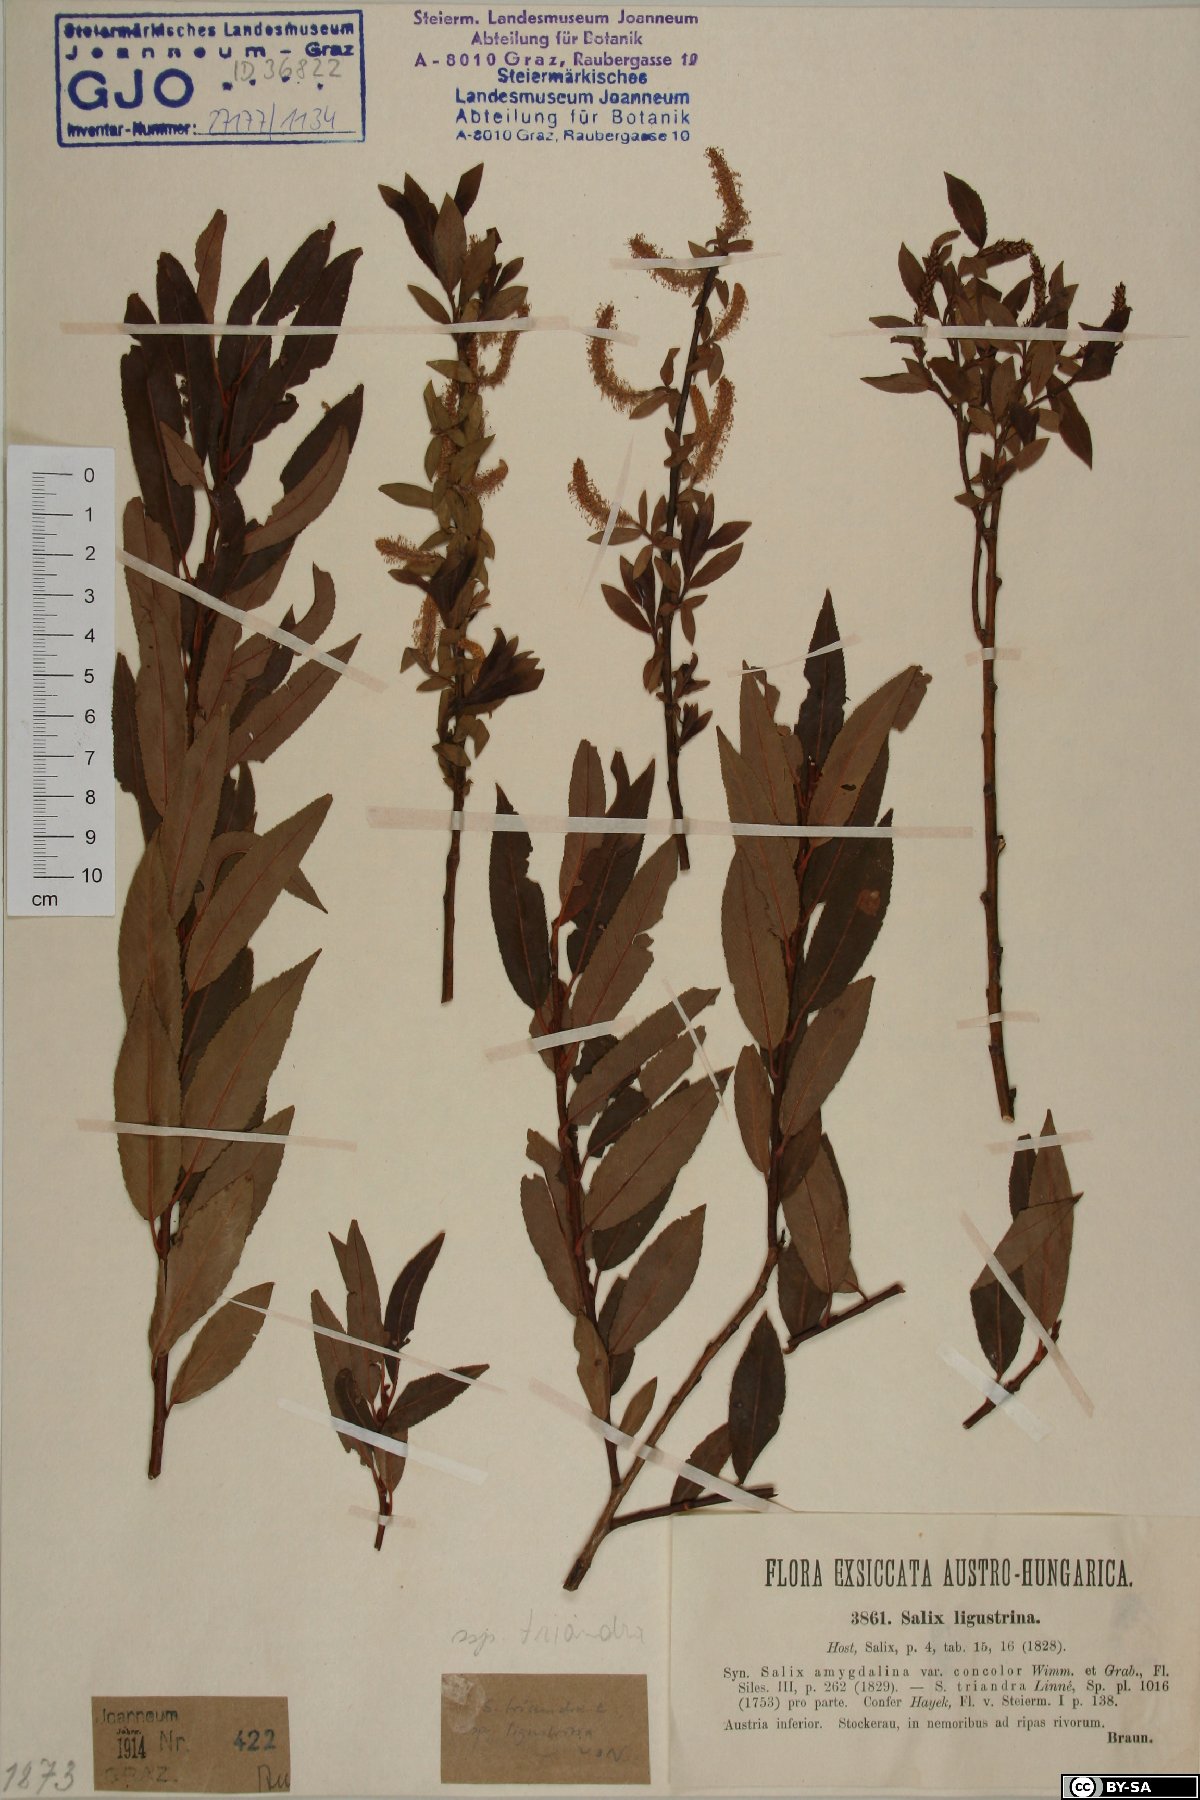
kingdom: Plantae
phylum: Tracheophyta
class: Magnoliopsida
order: Malpighiales
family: Salicaceae
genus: Salix
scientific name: Salix triandra
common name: Almond willow
